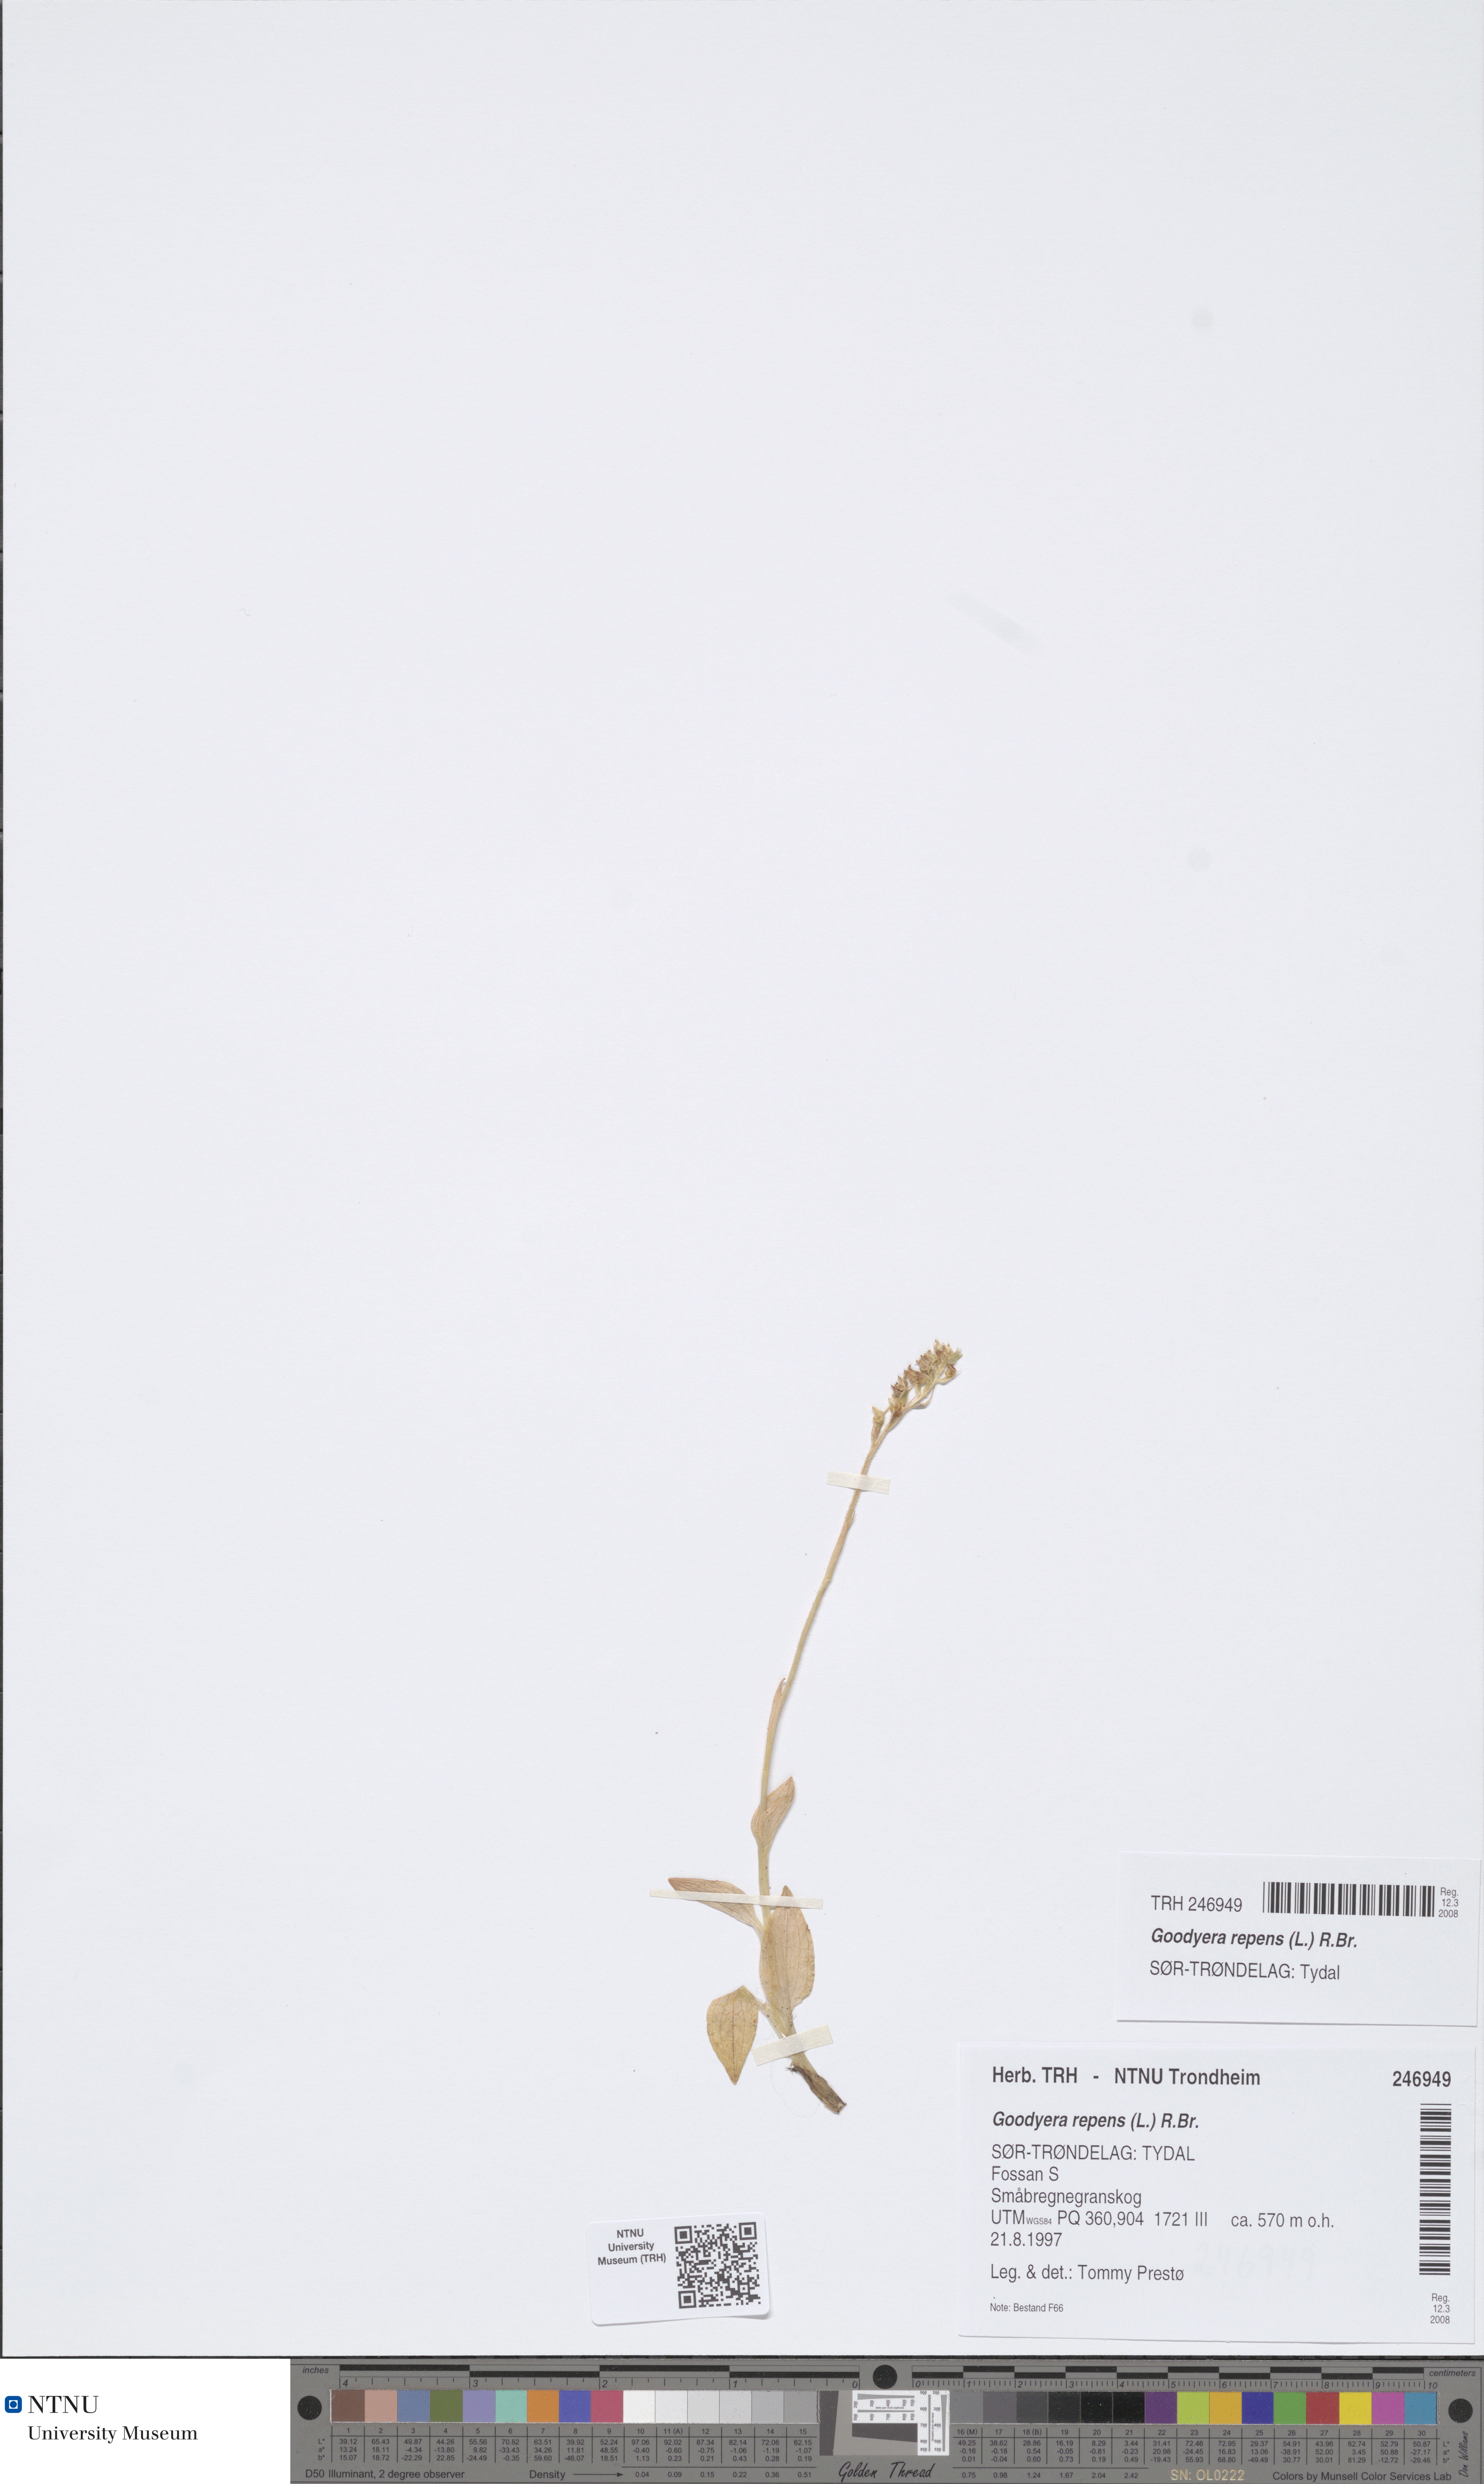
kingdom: Plantae
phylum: Tracheophyta
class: Liliopsida
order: Asparagales
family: Orchidaceae
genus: Goodyera
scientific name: Goodyera repens
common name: Creeping lady's-tresses
